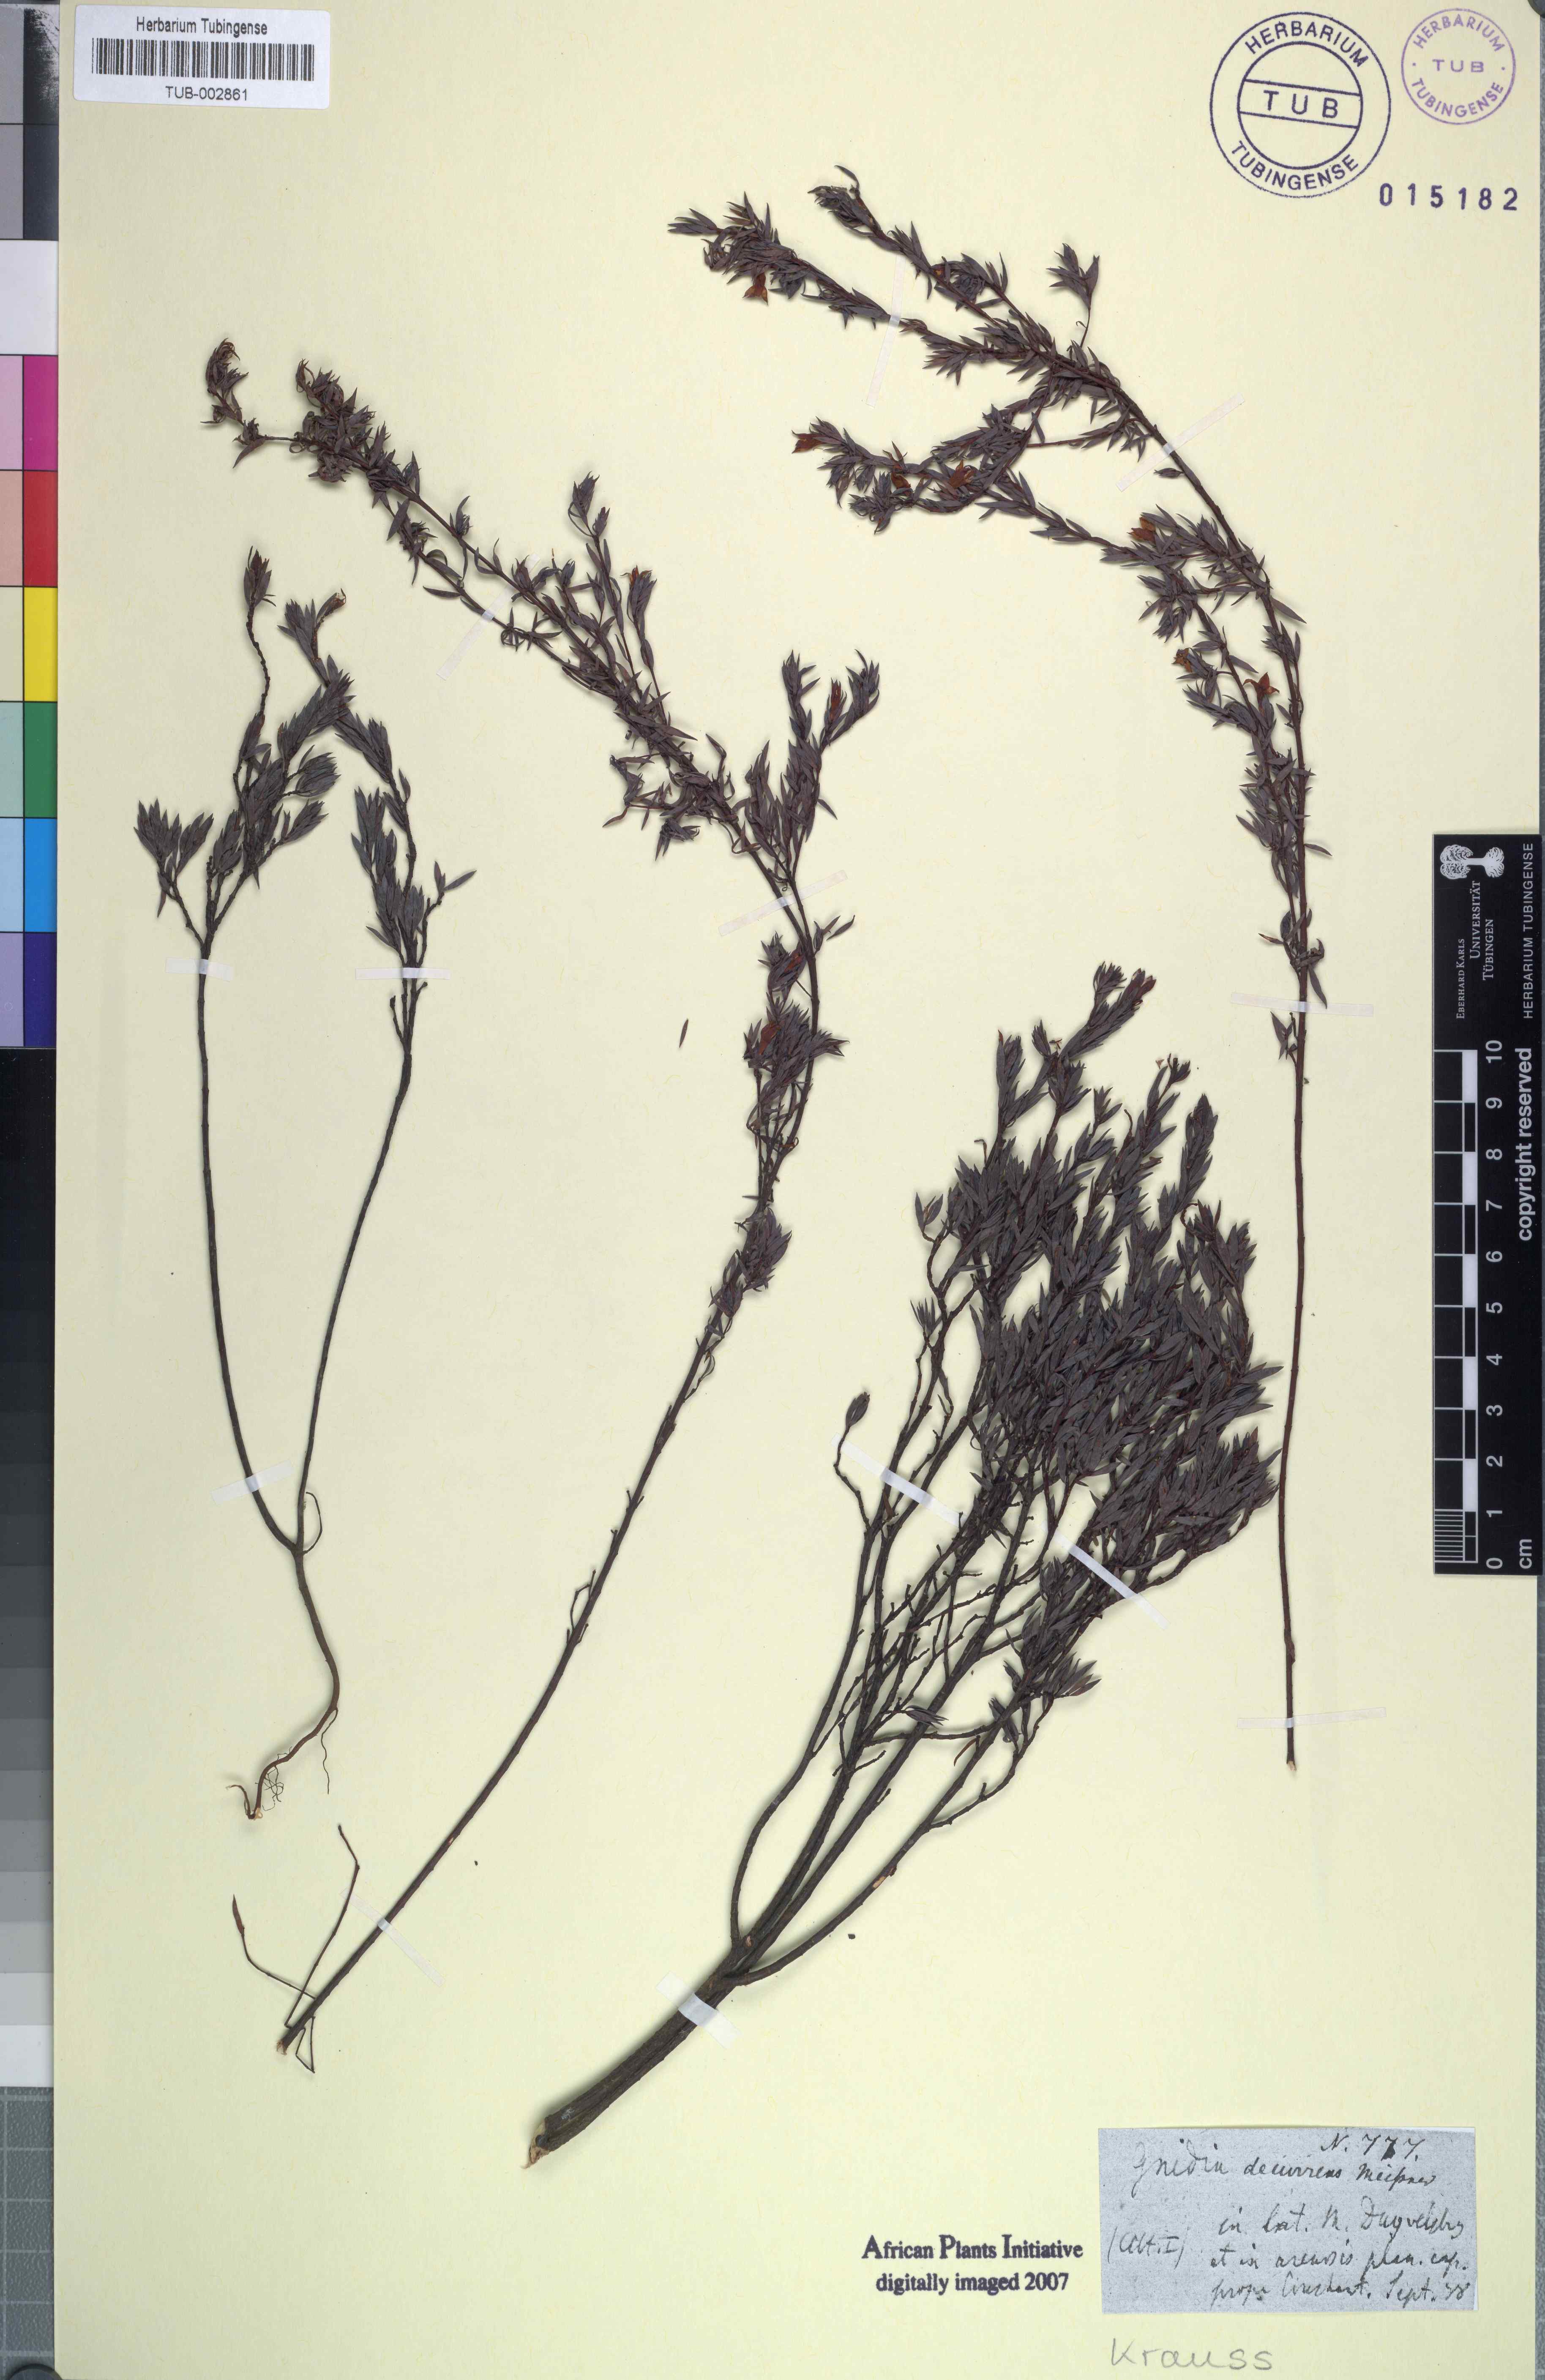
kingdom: Plantae
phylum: Tracheophyta
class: Magnoliopsida
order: Malvales
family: Thymelaeaceae
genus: Gnidia
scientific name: Gnidia decurrens
